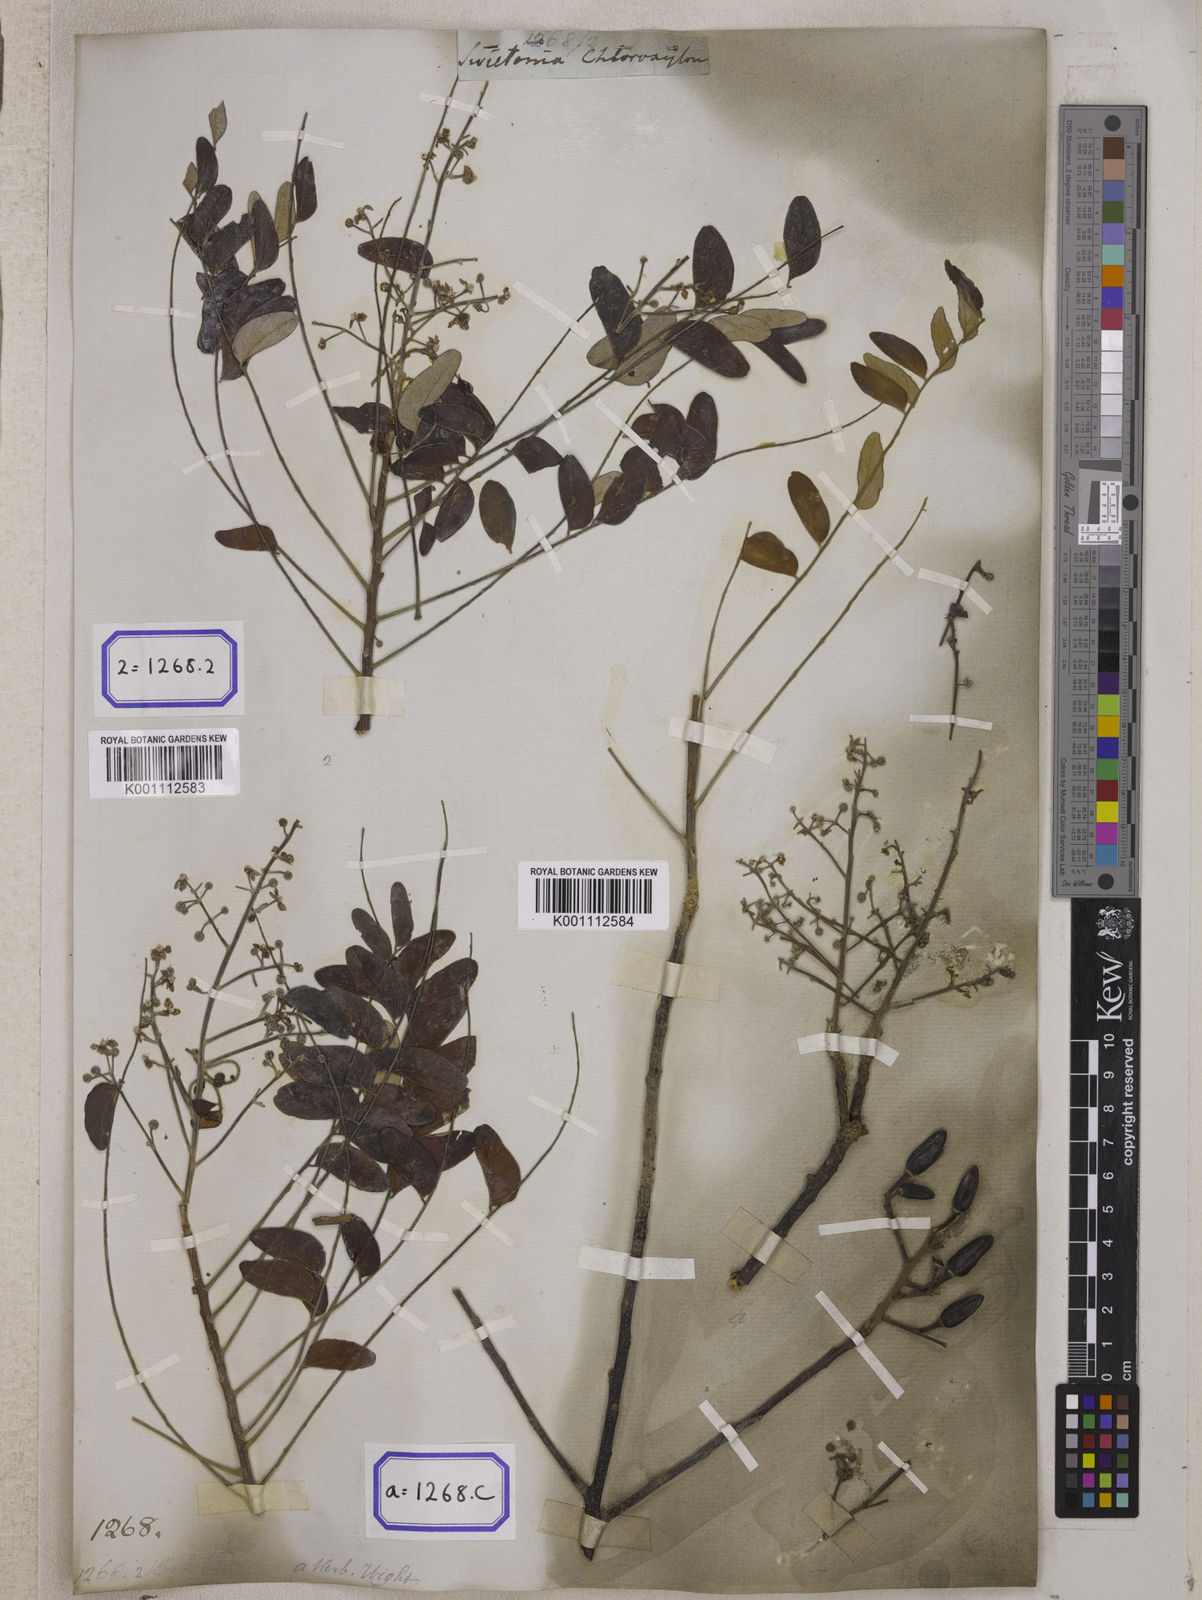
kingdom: Plantae
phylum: Tracheophyta
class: Magnoliopsida
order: Sapindales
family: Rutaceae
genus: Chloroxylon
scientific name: Chloroxylon swietenia
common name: East indian satinwood
